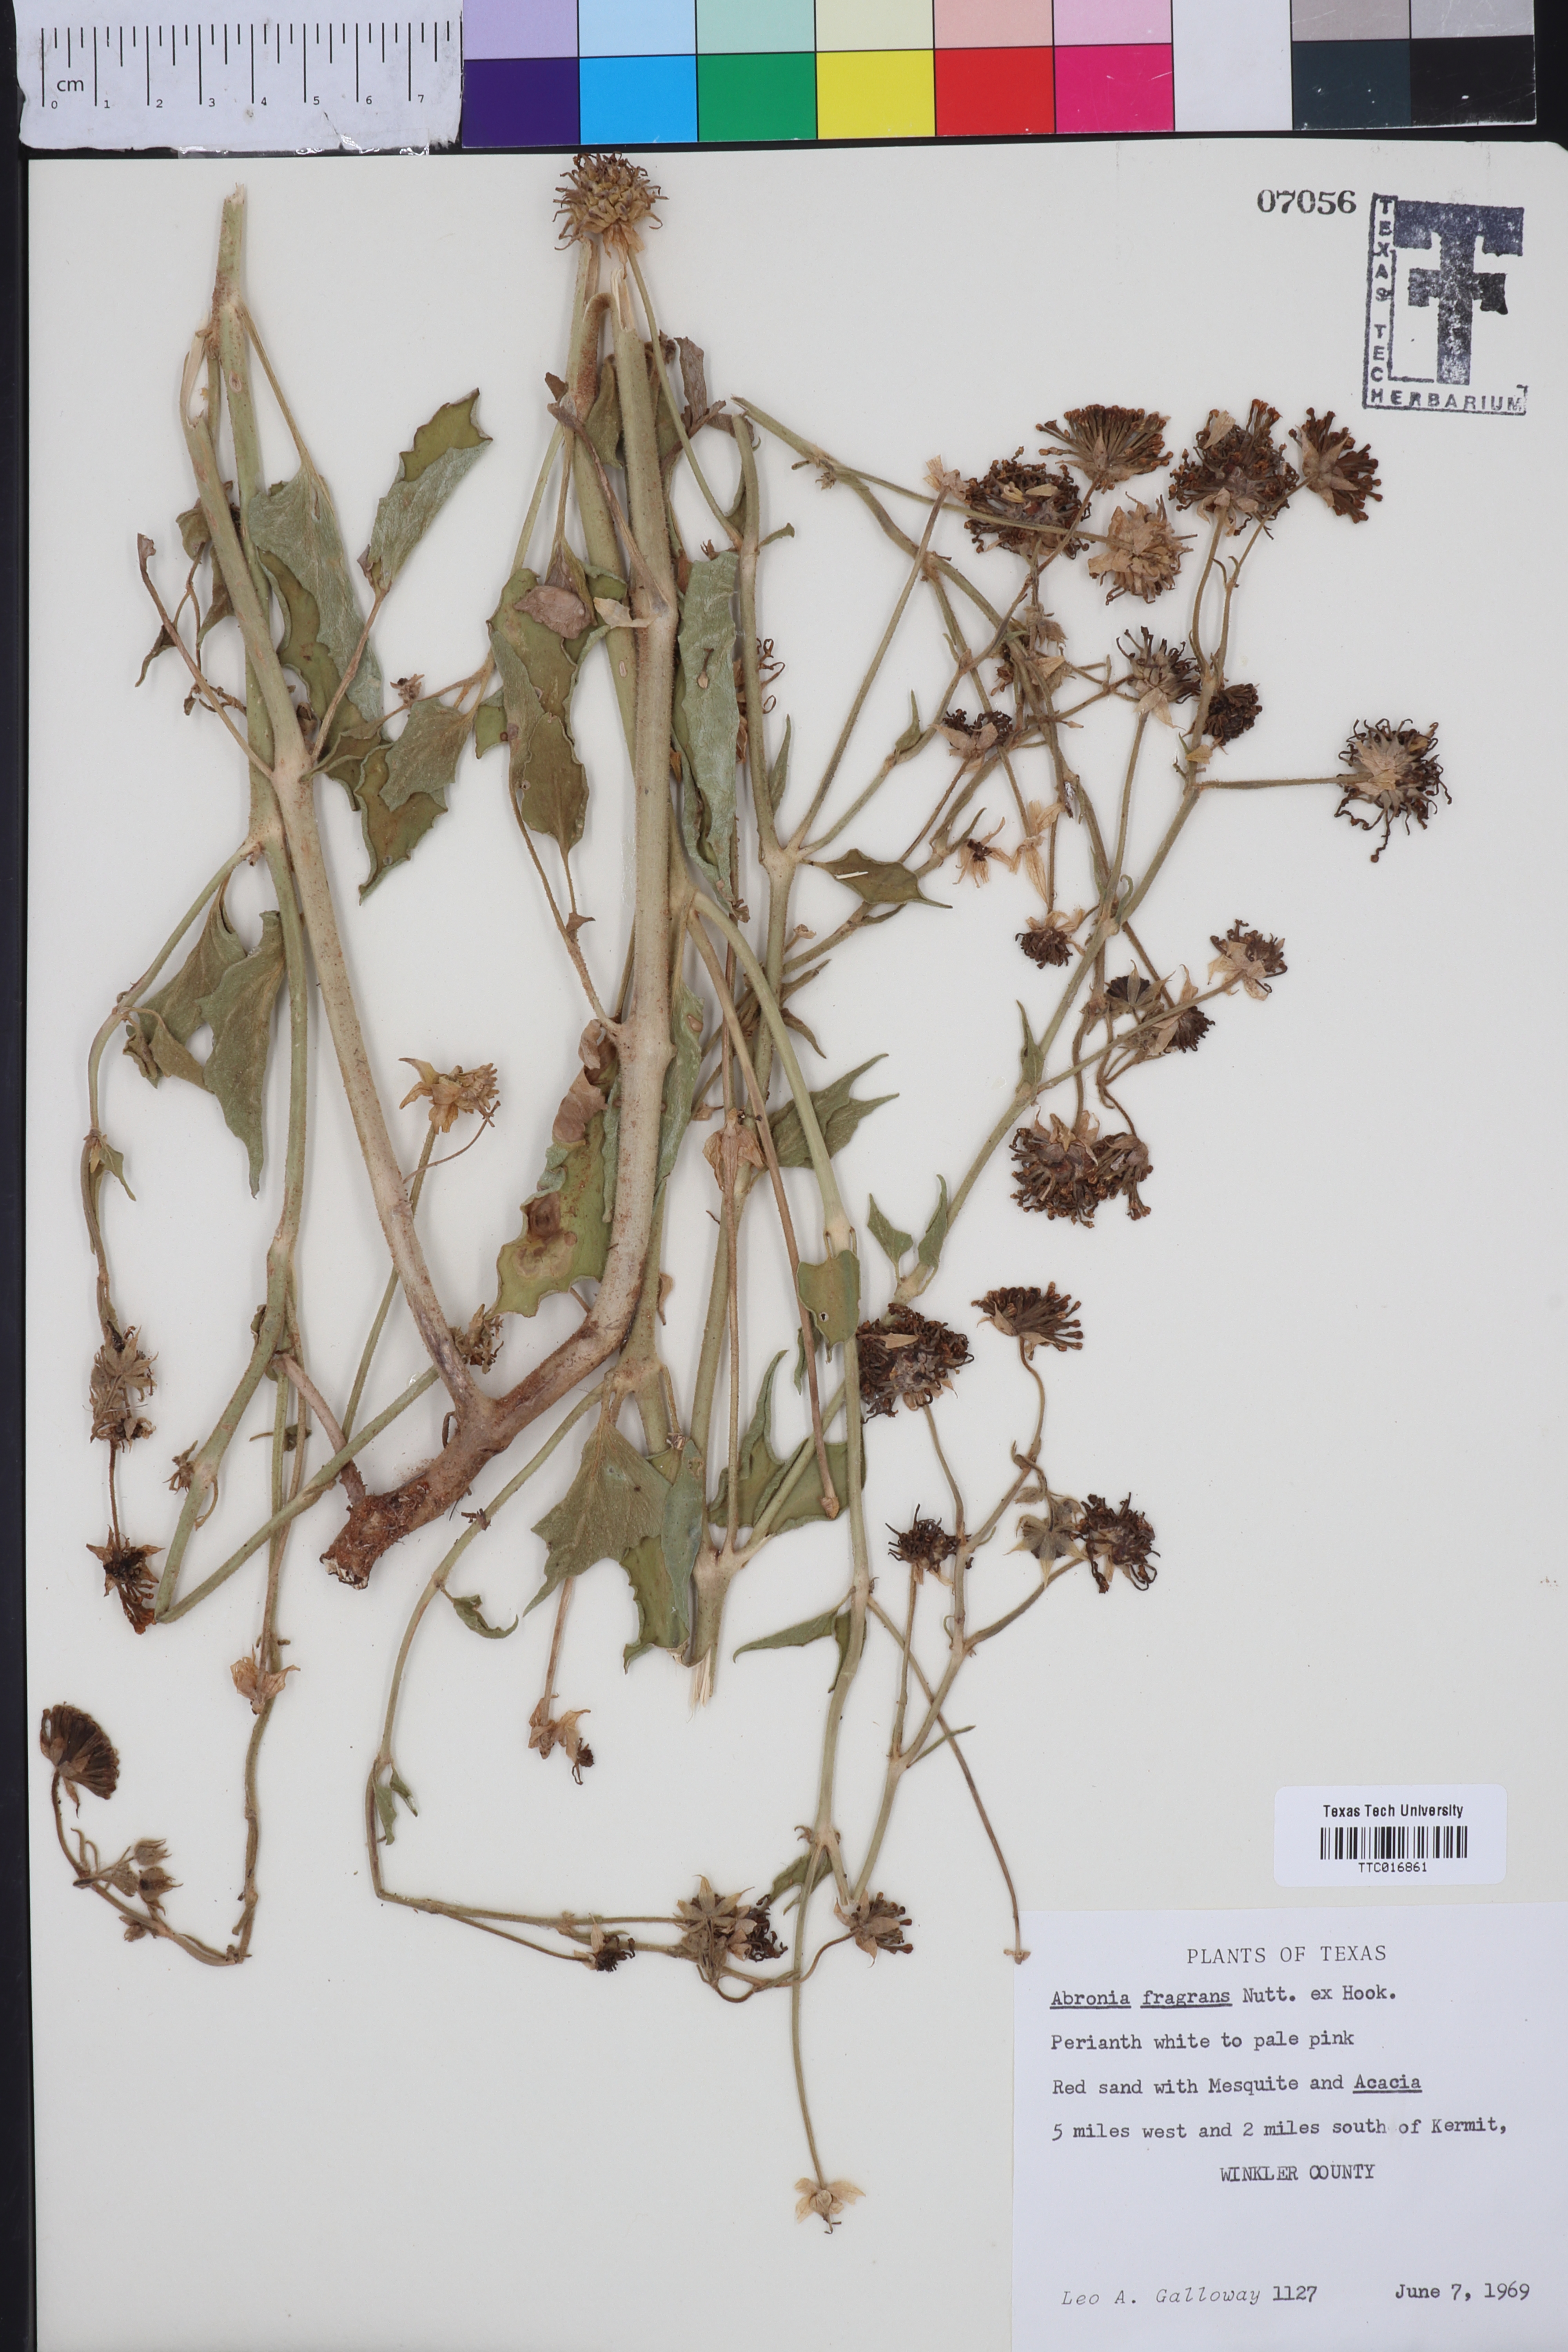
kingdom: Plantae
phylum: Tracheophyta
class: Magnoliopsida
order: Caryophyllales
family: Nyctaginaceae
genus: Abronia
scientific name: Abronia fragrans
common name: Fragrant sand-verbena
